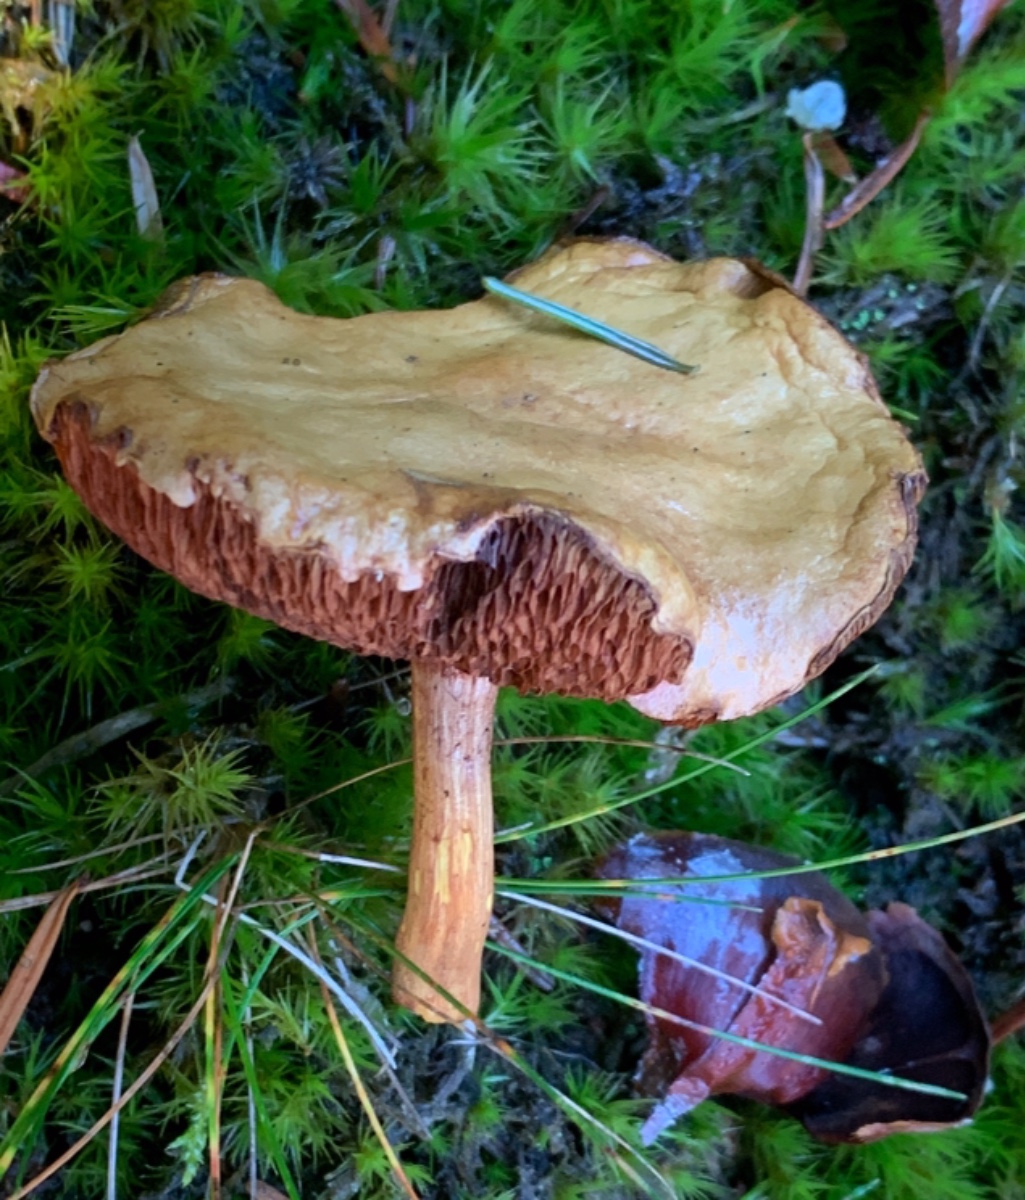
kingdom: Fungi
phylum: Basidiomycota
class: Agaricomycetes
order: Boletales
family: Boletaceae
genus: Chalciporus
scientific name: Chalciporus piperatus
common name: peberrørhat
